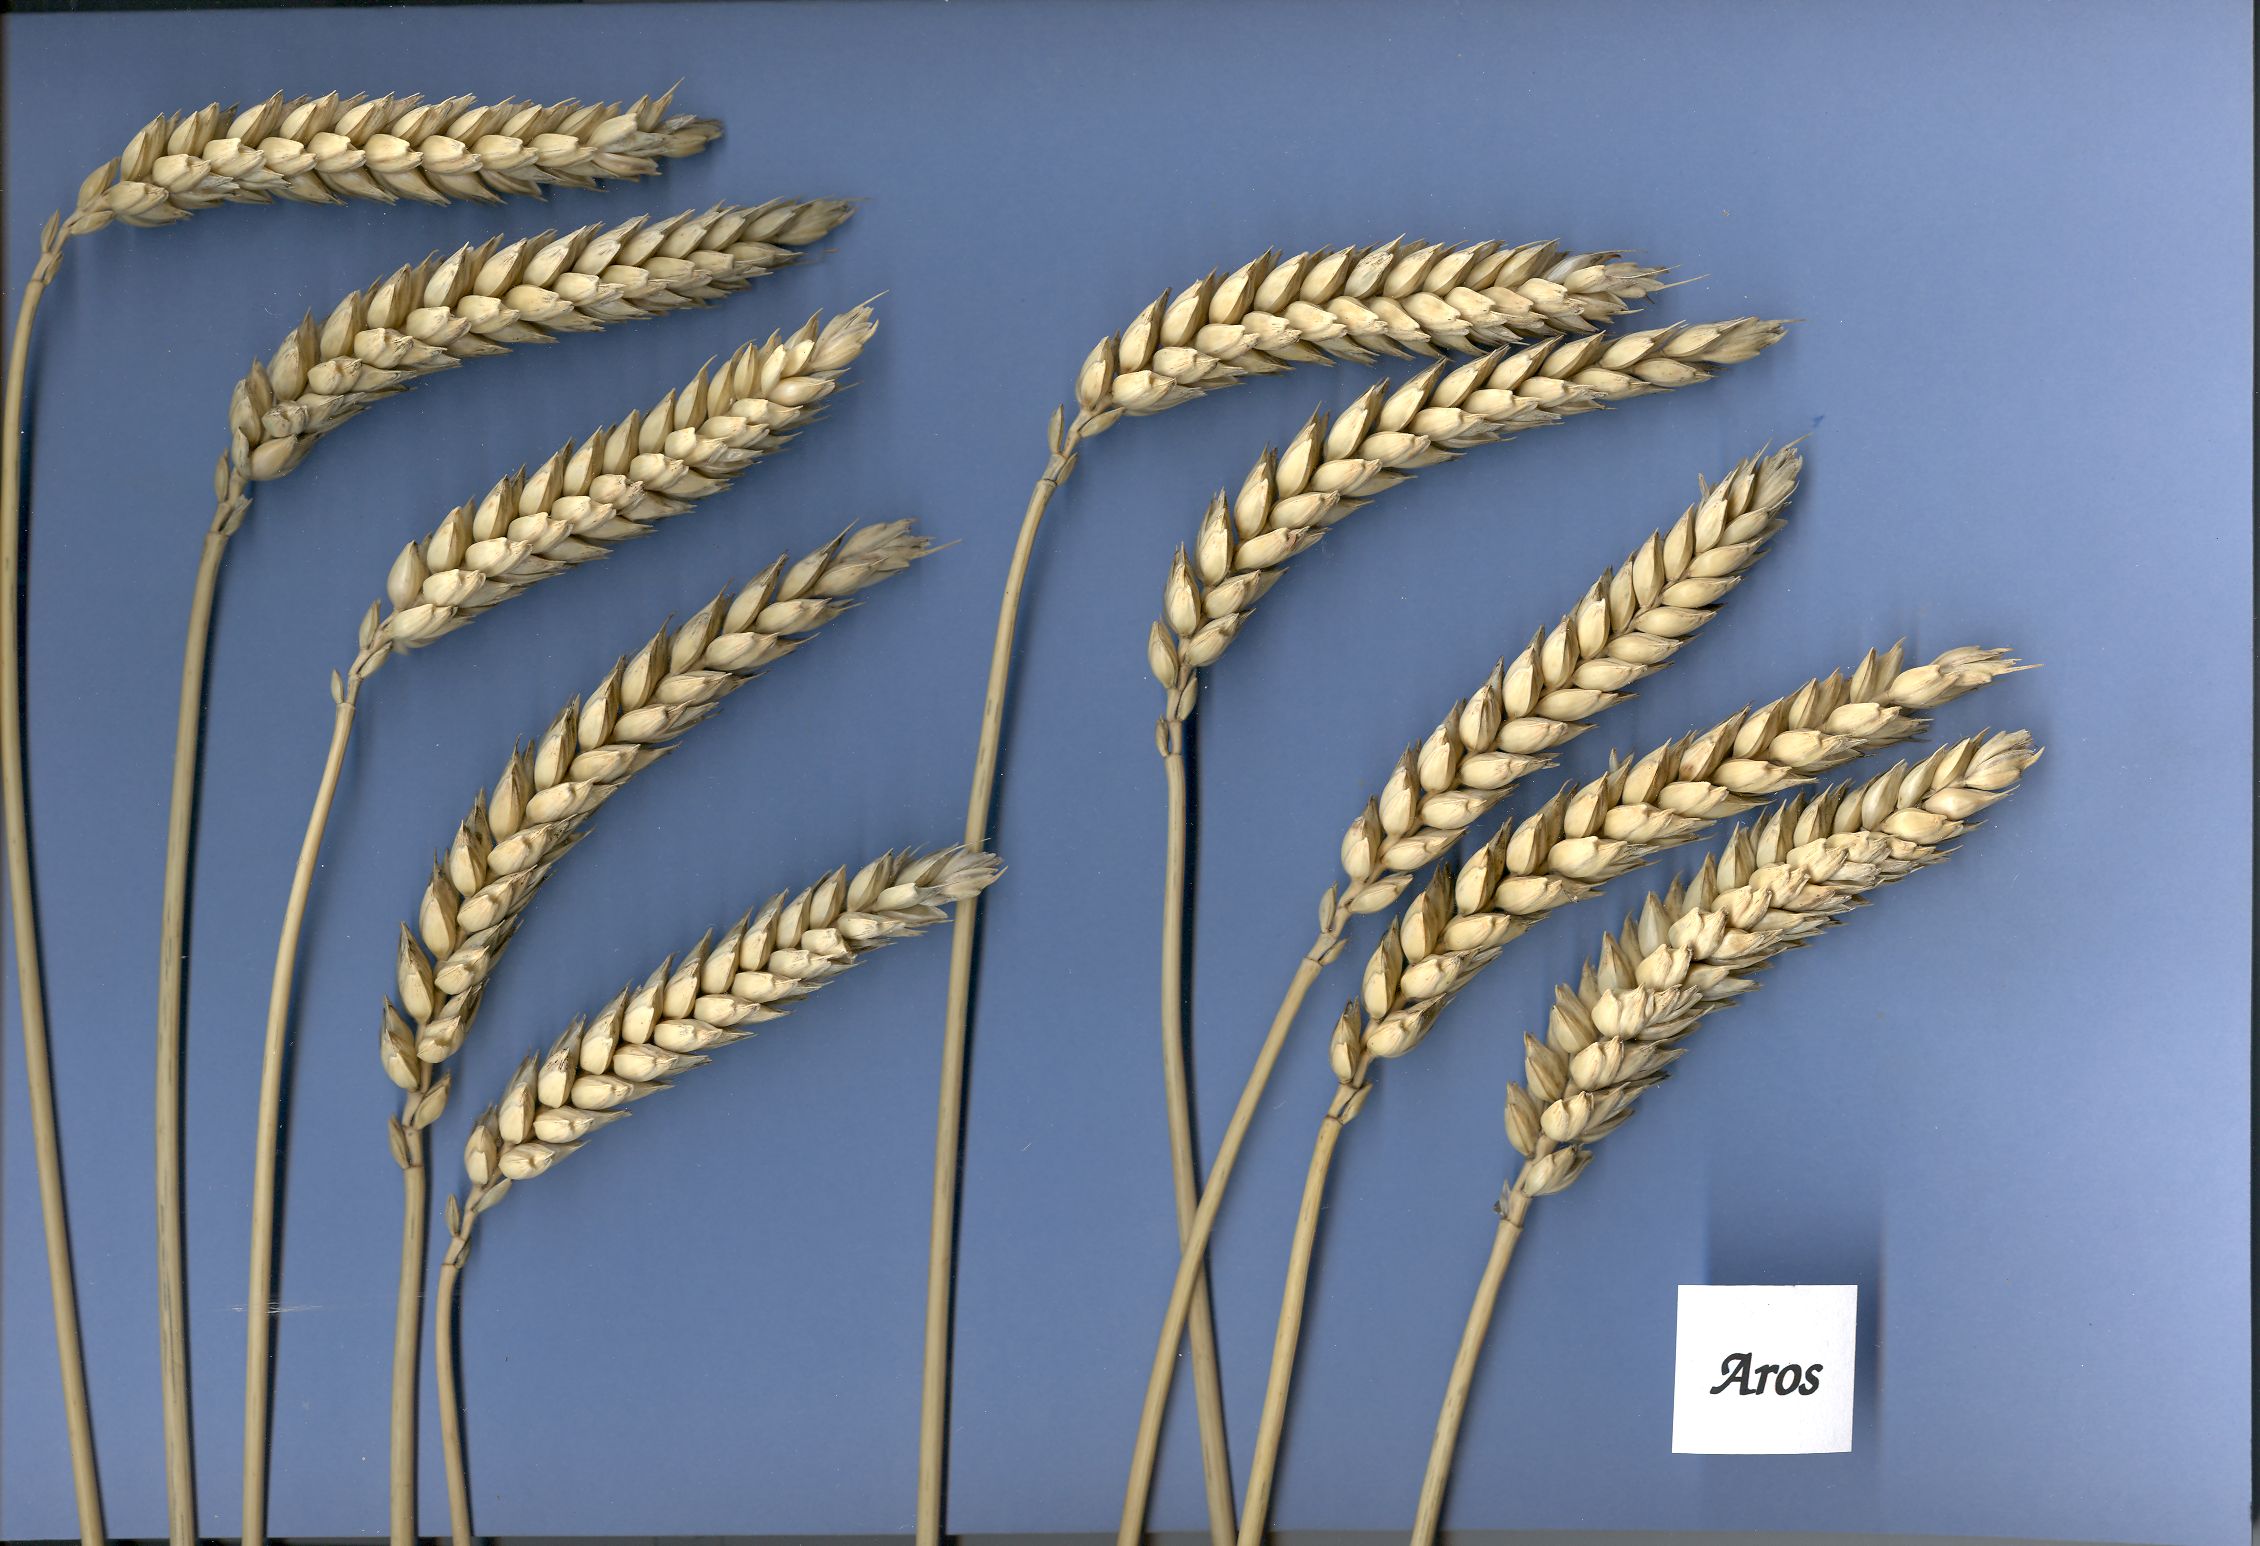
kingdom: Plantae
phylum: Tracheophyta
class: Liliopsida
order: Poales
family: Poaceae
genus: Triticum
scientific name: Triticum aestivum
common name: Common wheat
